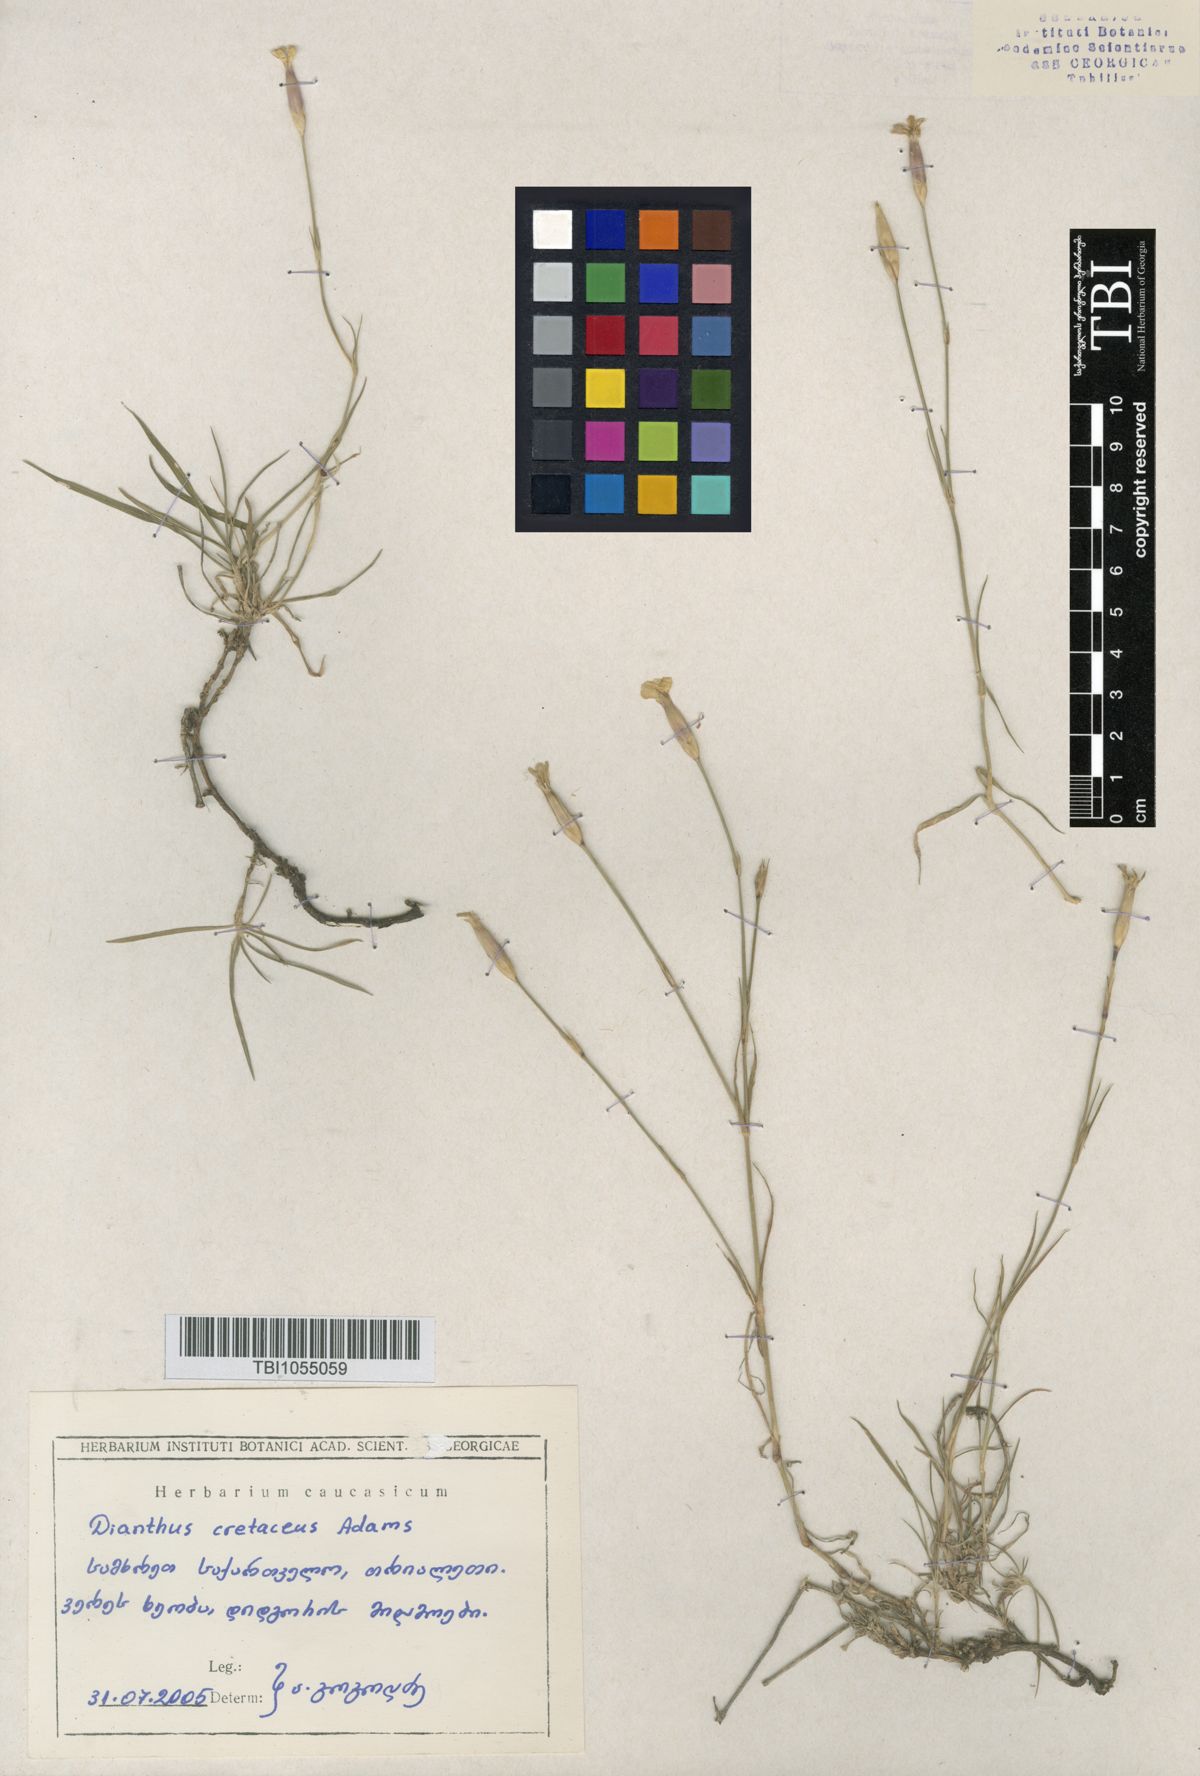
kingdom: Plantae
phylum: Tracheophyta
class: Magnoliopsida
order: Caryophyllales
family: Caryophyllaceae
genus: Dianthus
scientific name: Dianthus cretaceus
